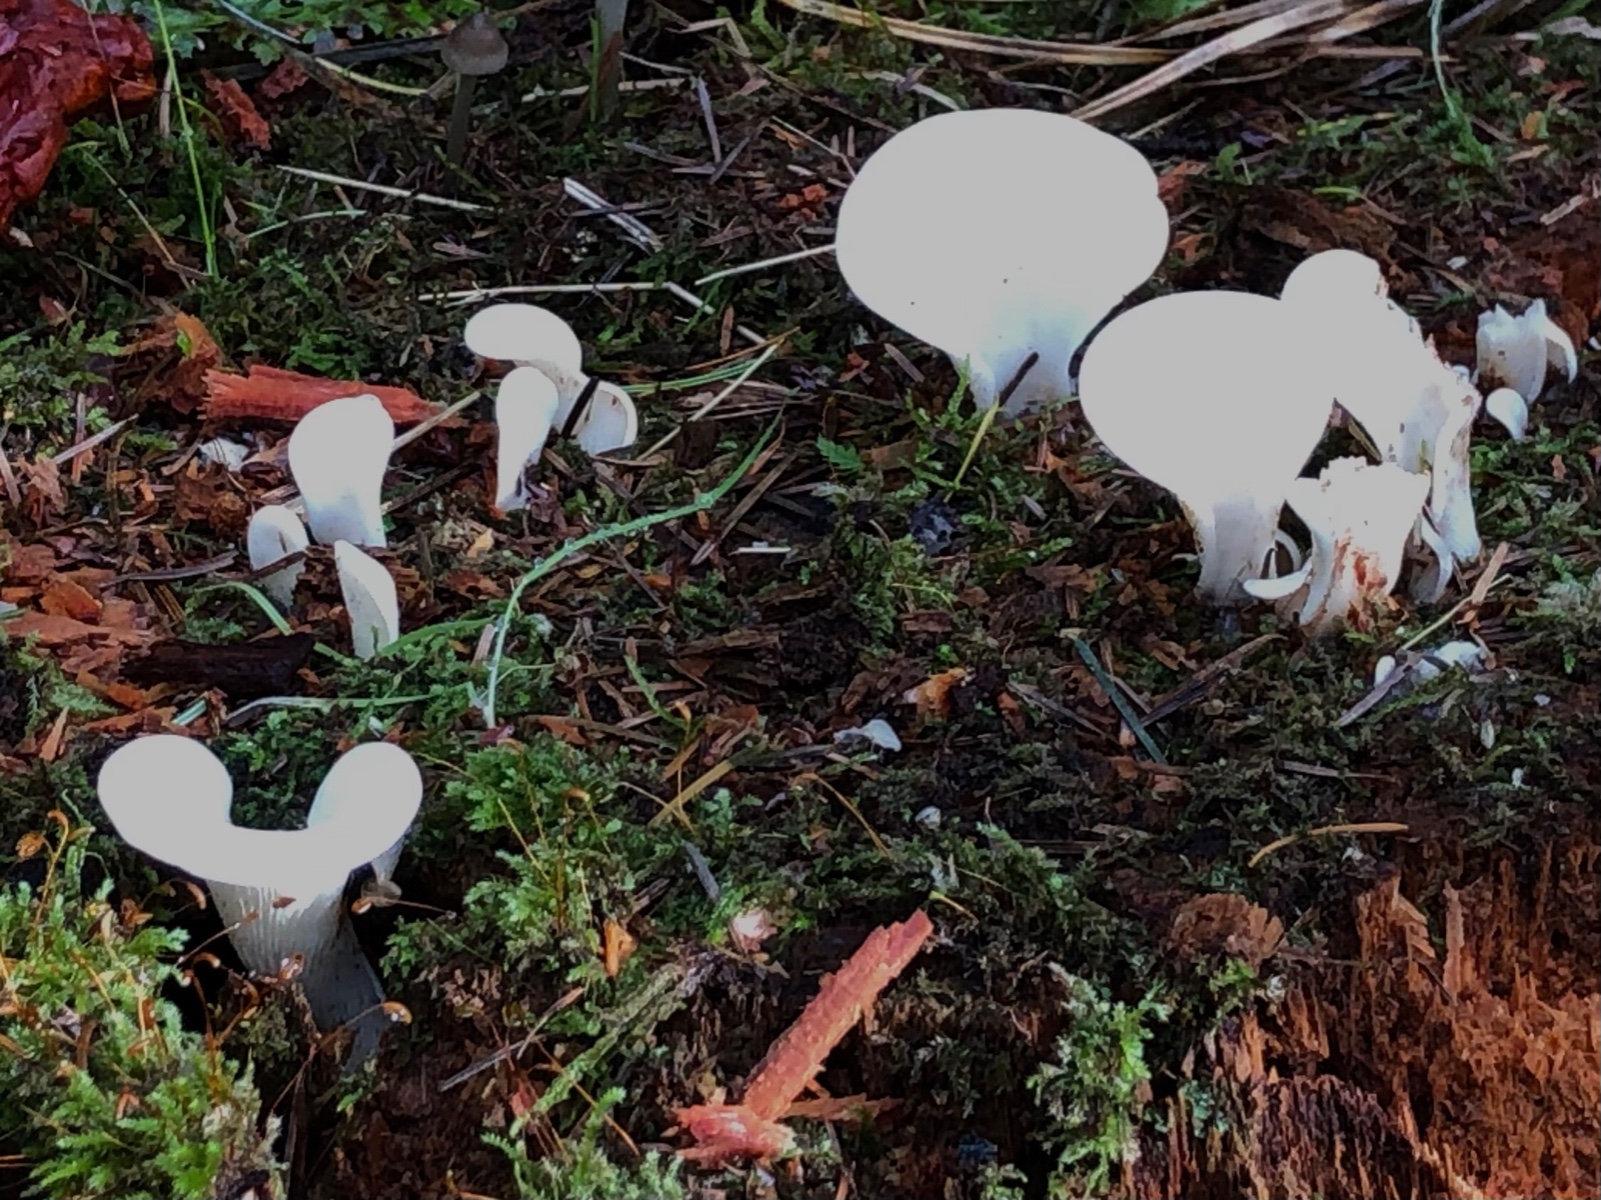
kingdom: Fungi
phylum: Basidiomycota
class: Agaricomycetes
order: Agaricales
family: Marasmiaceae
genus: Pleurocybella
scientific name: Pleurocybella porrigens
